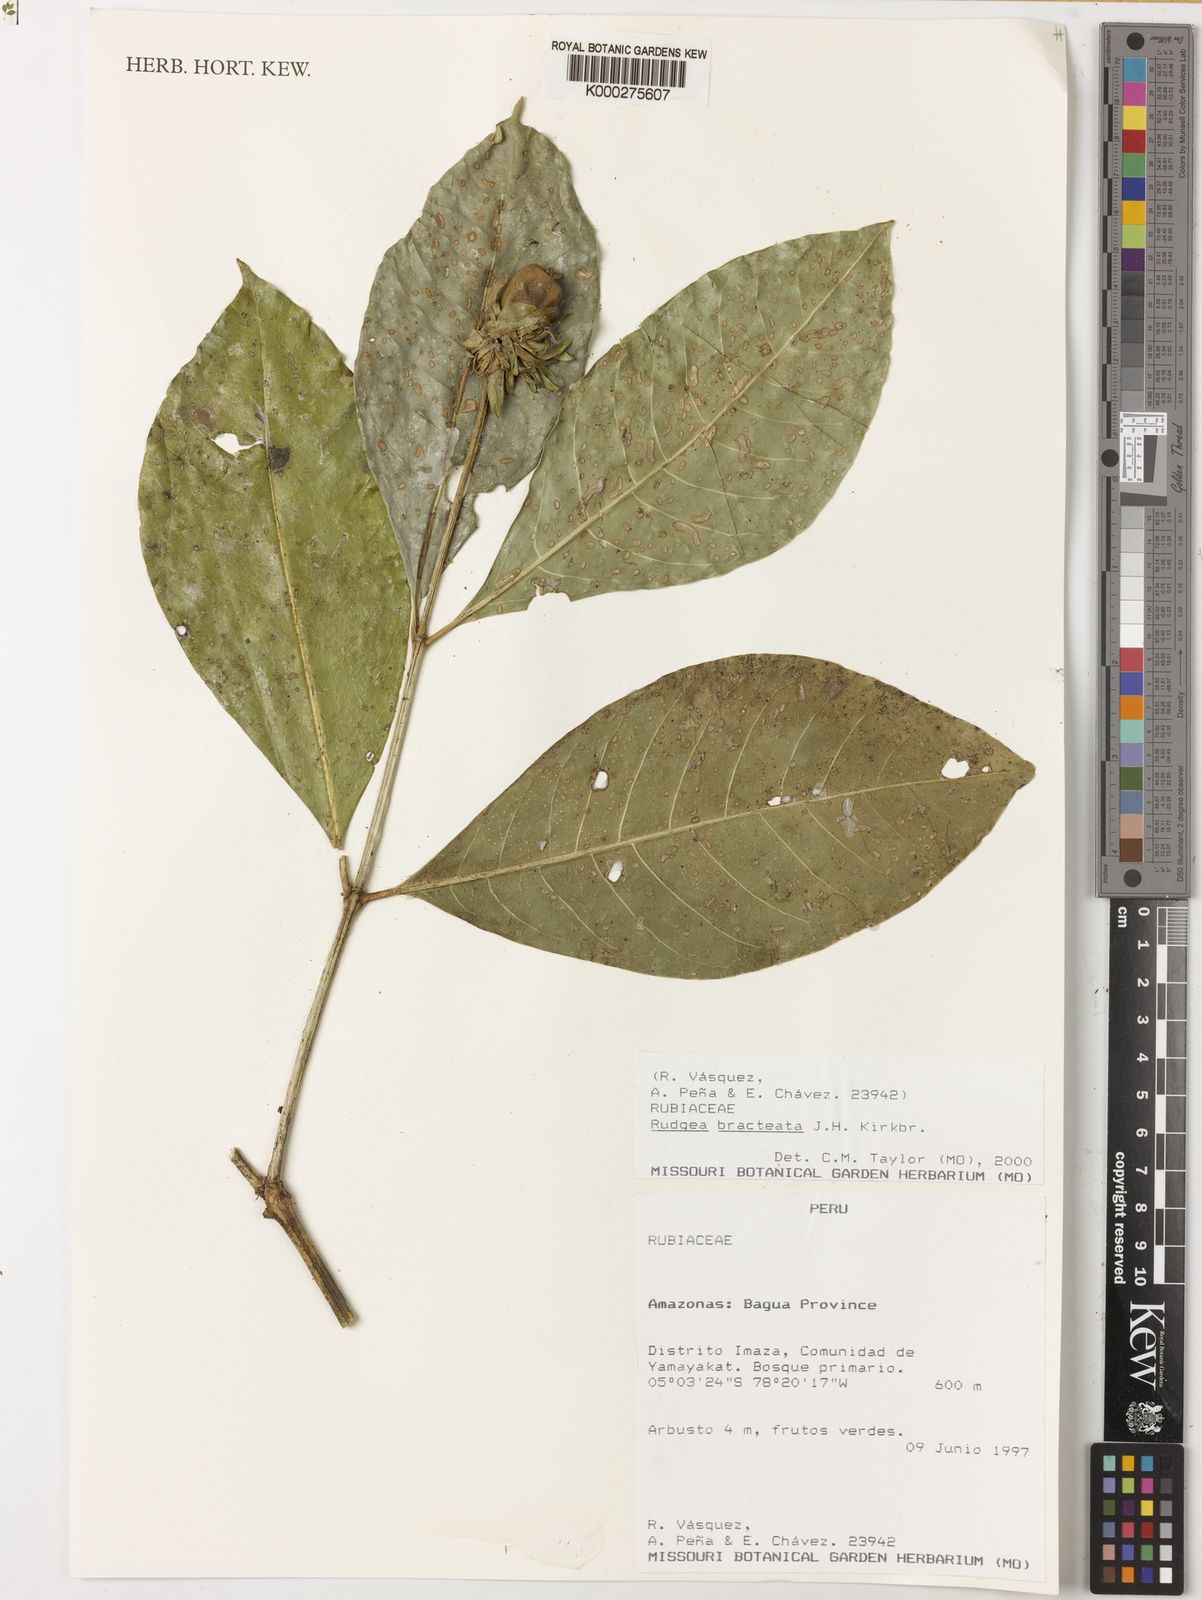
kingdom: Plantae
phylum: Tracheophyta
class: Magnoliopsida
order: Gentianales
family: Rubiaceae
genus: Rudgea
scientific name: Rudgea bracteata
